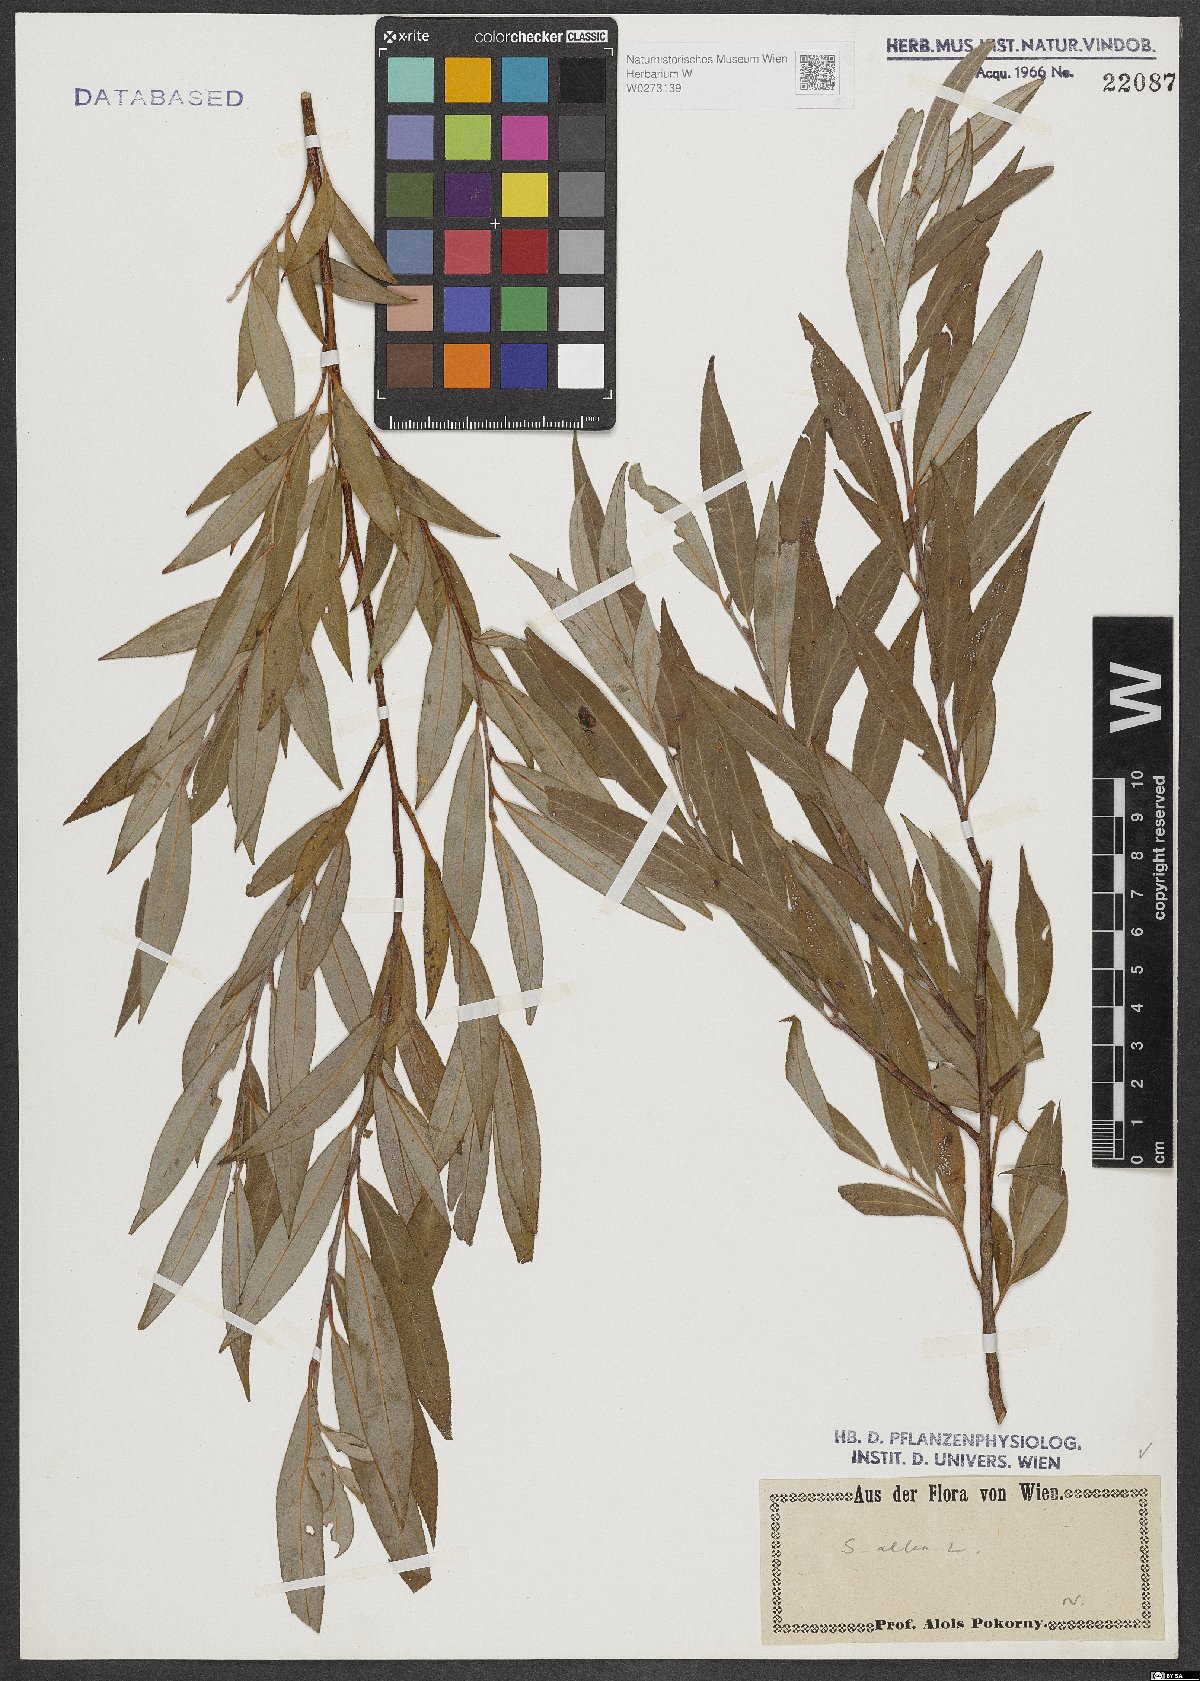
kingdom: Plantae
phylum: Tracheophyta
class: Magnoliopsida
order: Malpighiales
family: Salicaceae
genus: Salix
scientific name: Salix alba
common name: White willow
